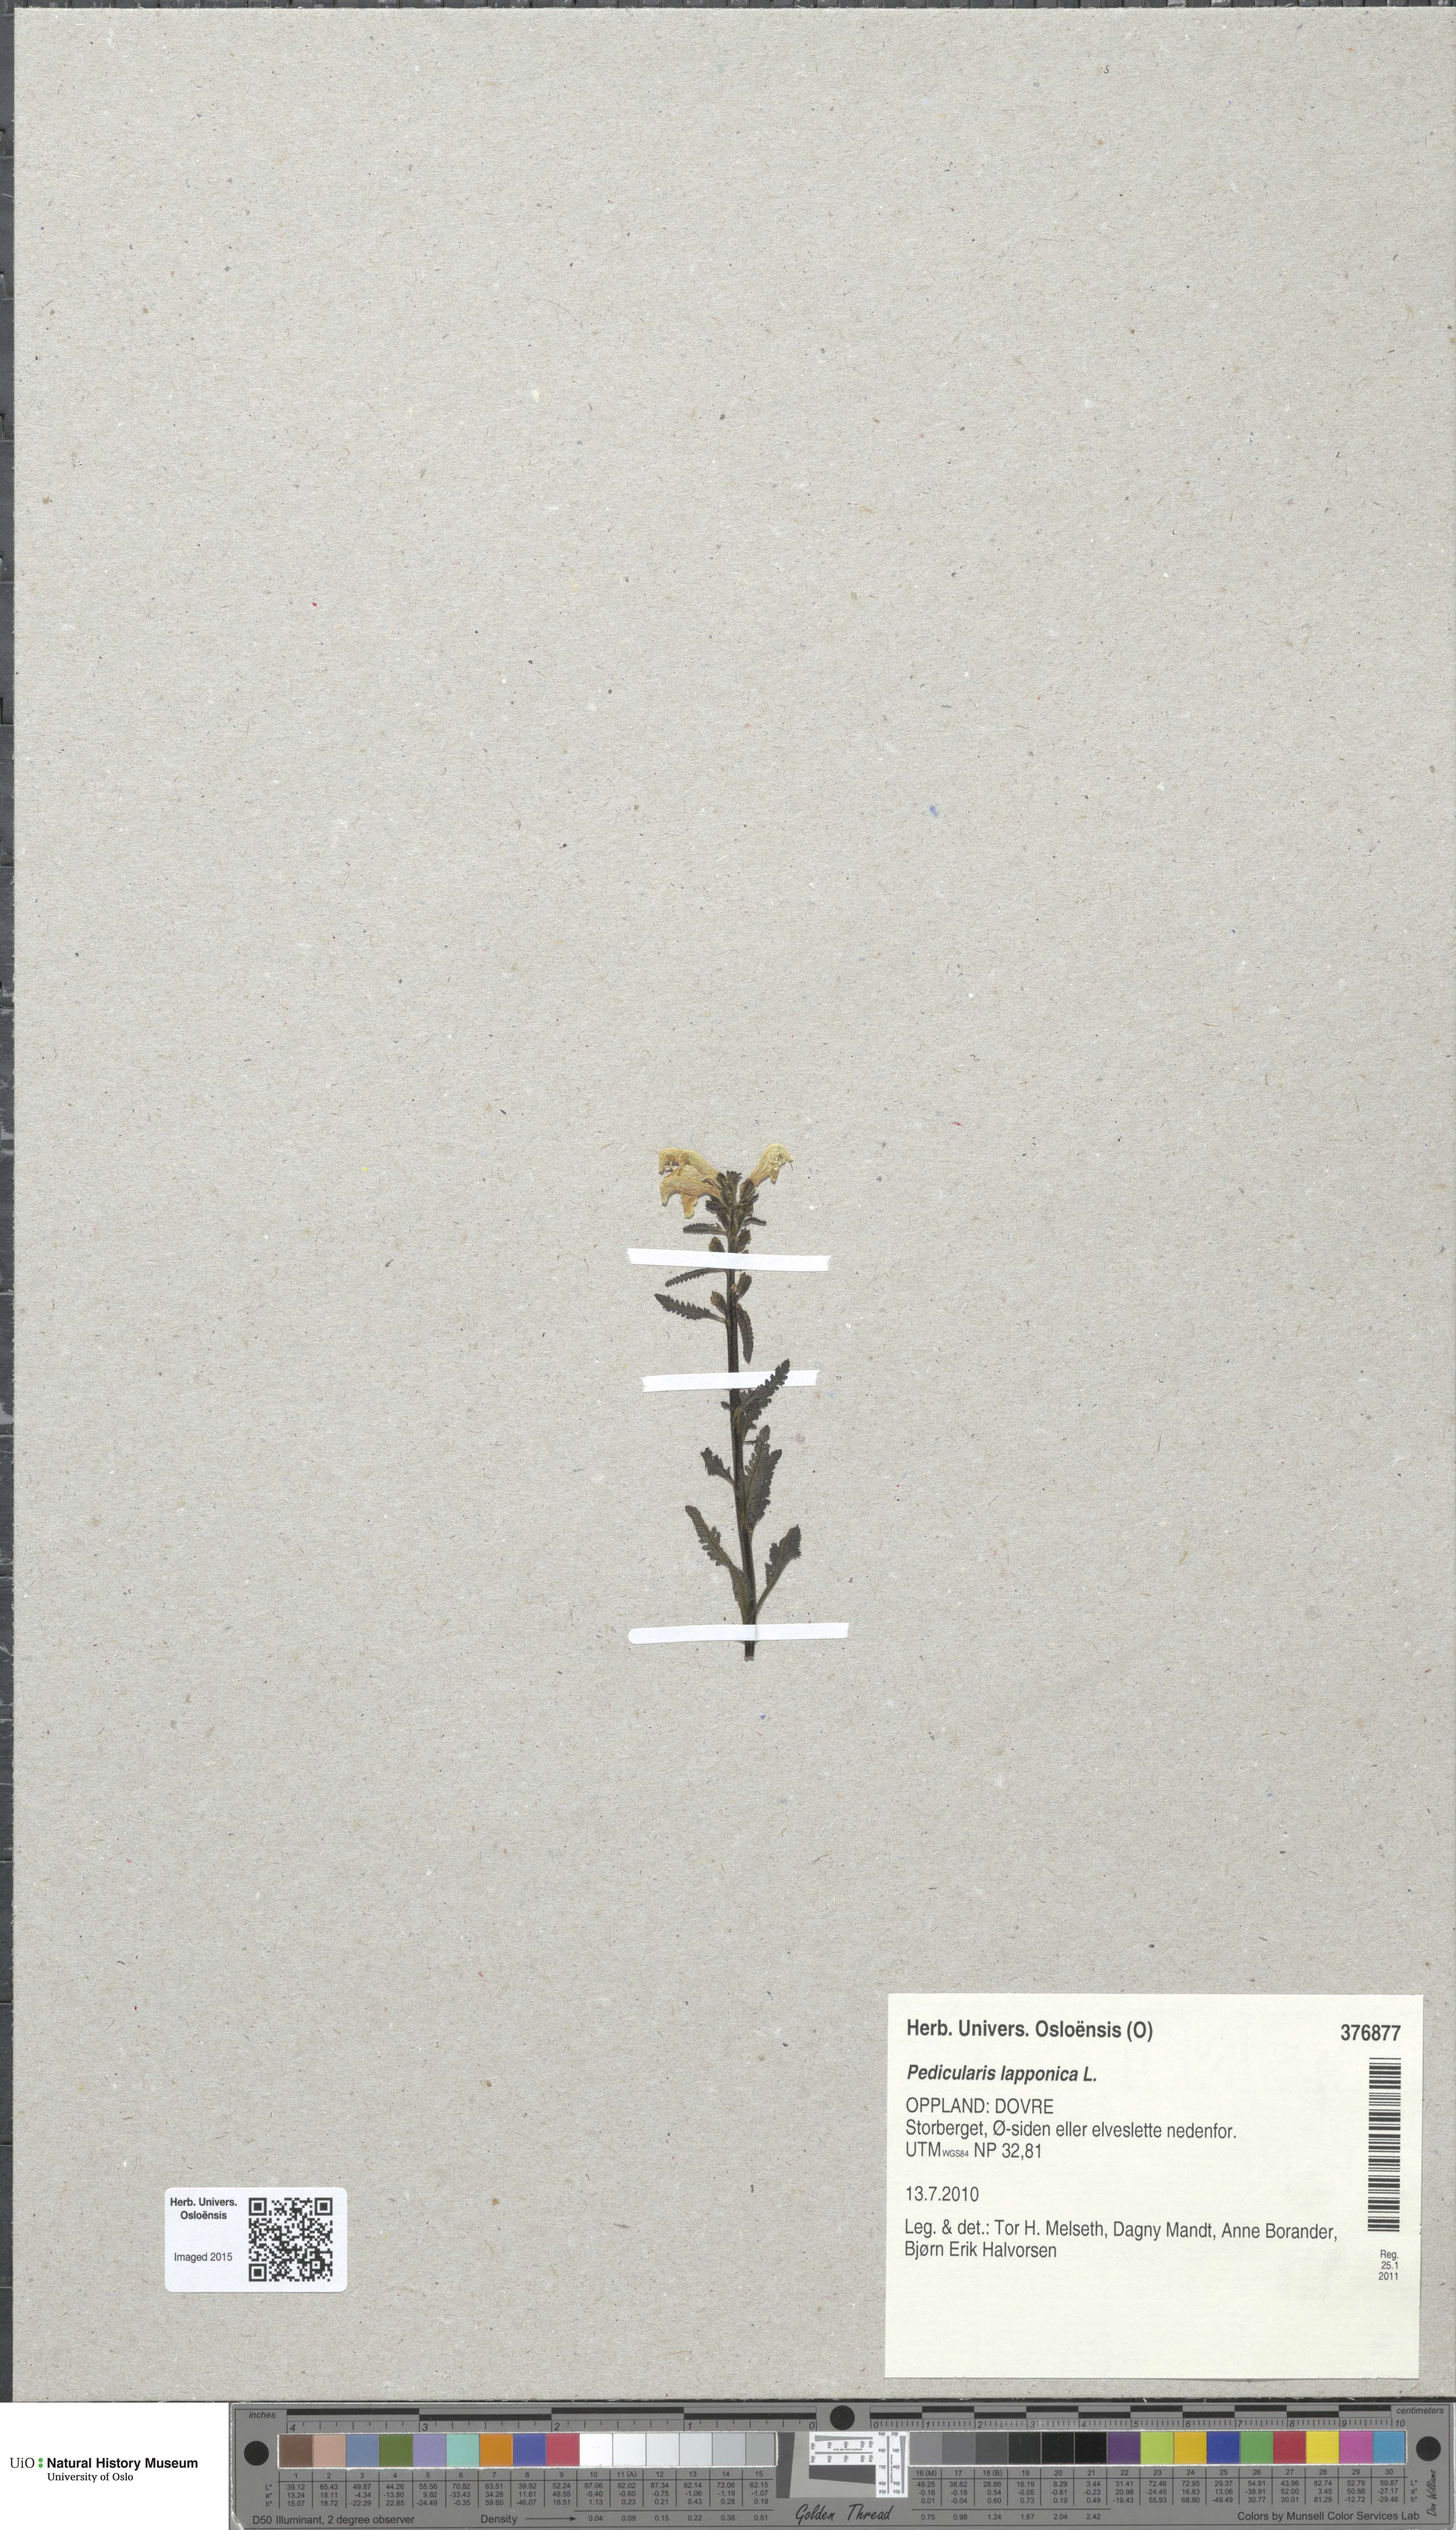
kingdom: Plantae
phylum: Tracheophyta
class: Magnoliopsida
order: Lamiales
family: Orobanchaceae
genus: Pedicularis
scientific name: Pedicularis lapponica
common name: Lapland lousewort
